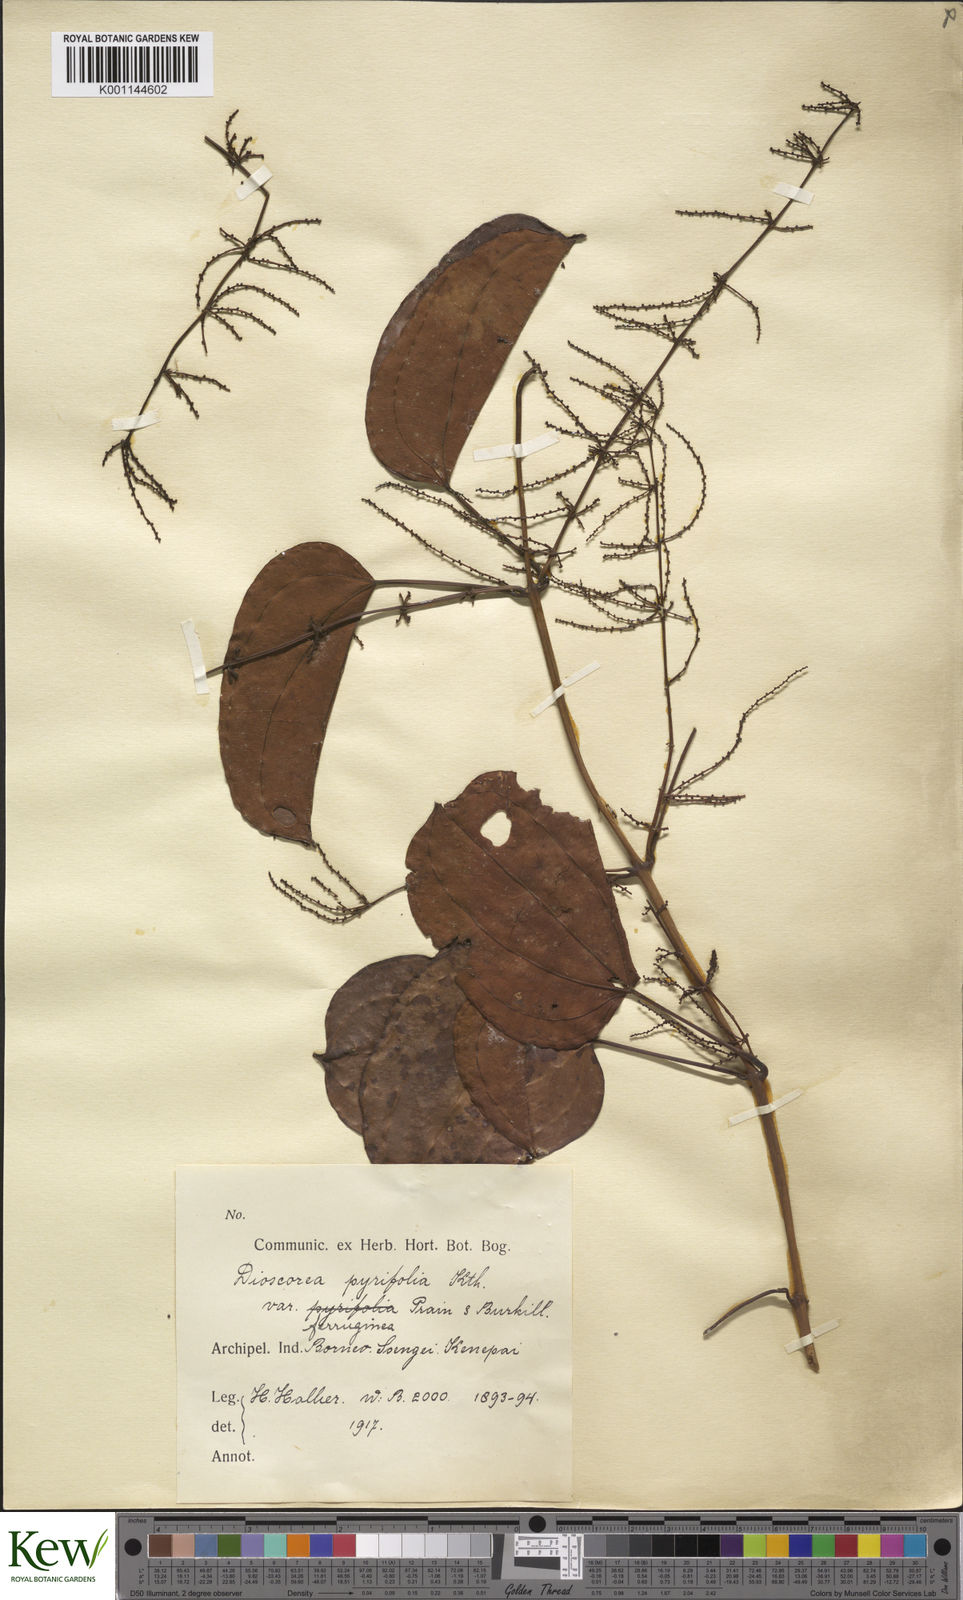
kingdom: Plantae
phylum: Tracheophyta
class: Liliopsida
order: Dioscoreales
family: Dioscoreaceae
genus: Dioscorea
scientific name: Dioscorea pyrifolia
